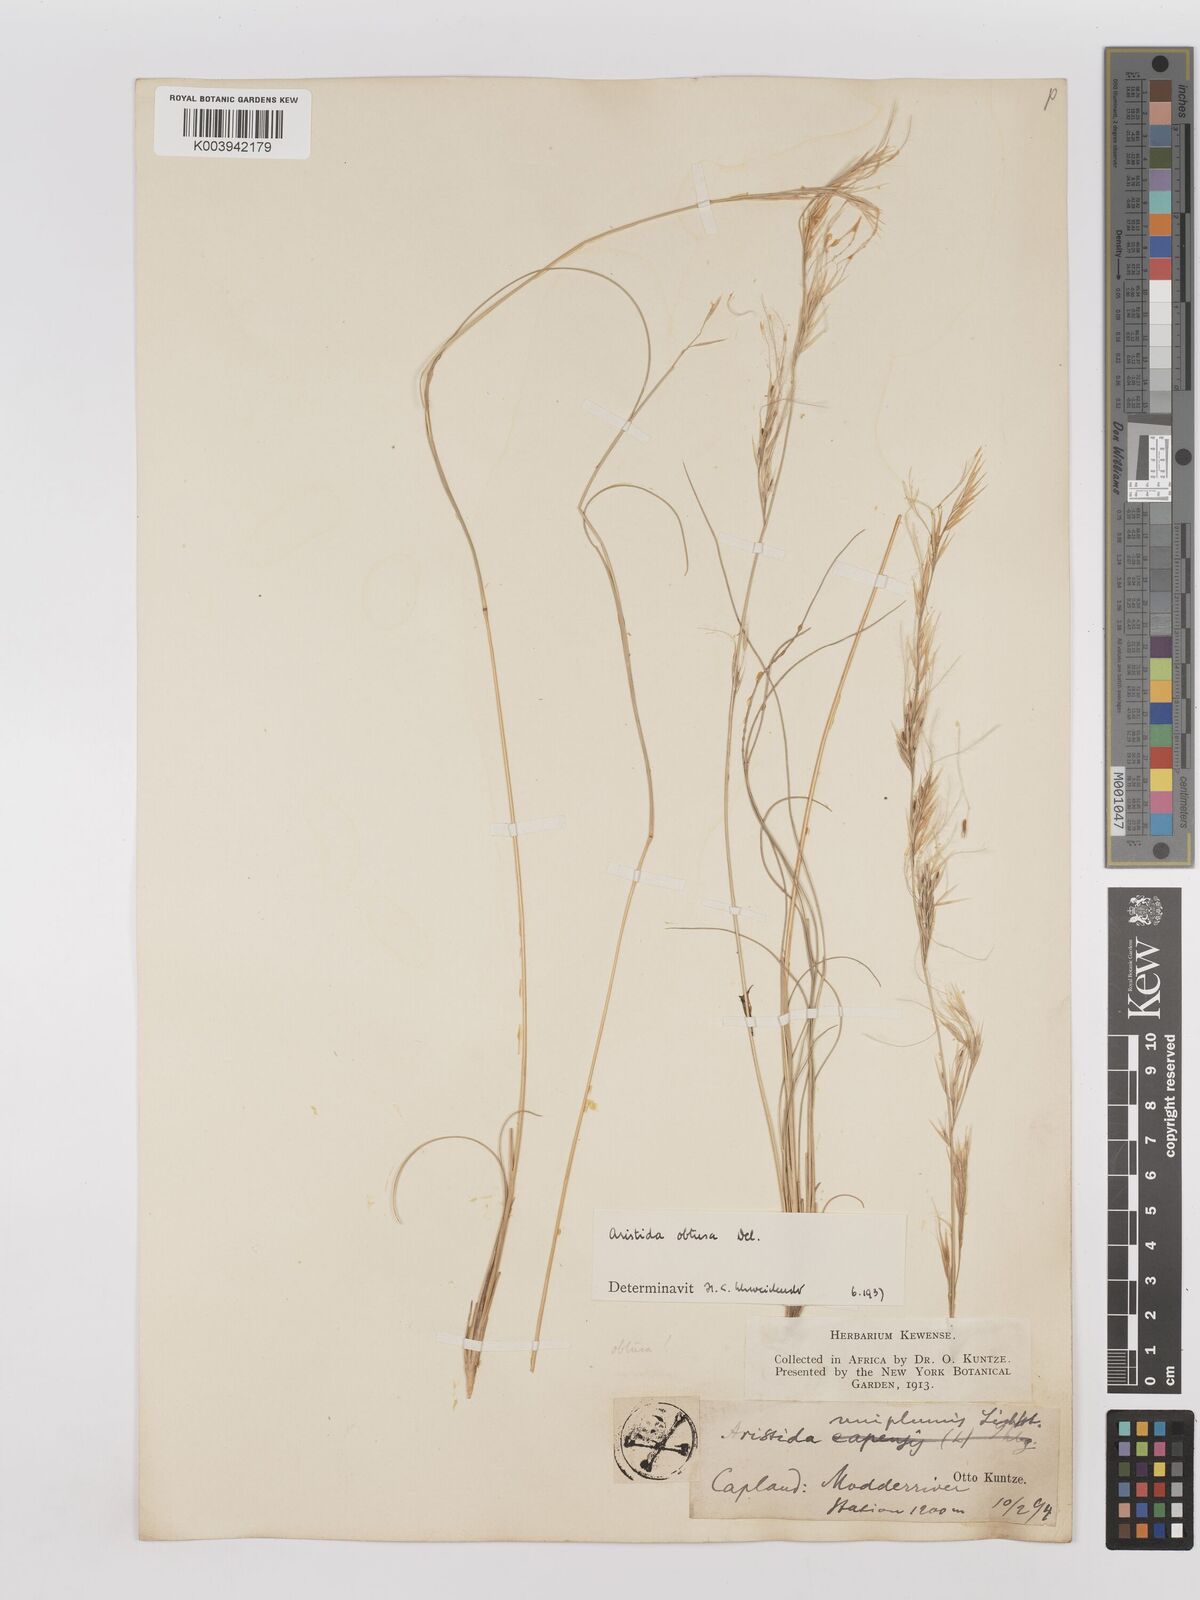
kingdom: Plantae
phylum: Tracheophyta
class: Liliopsida
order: Poales
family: Poaceae
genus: Stipagrostis
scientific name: Stipagrostis obtusa
